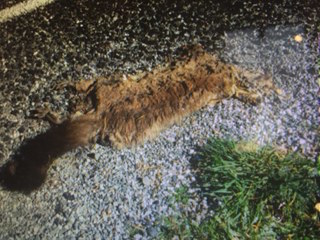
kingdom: Animalia
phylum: Chordata
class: Mammalia
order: Diprotodontia
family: Phalangeridae
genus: Trichosurus
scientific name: Trichosurus vulpecula
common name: Common brushtail
